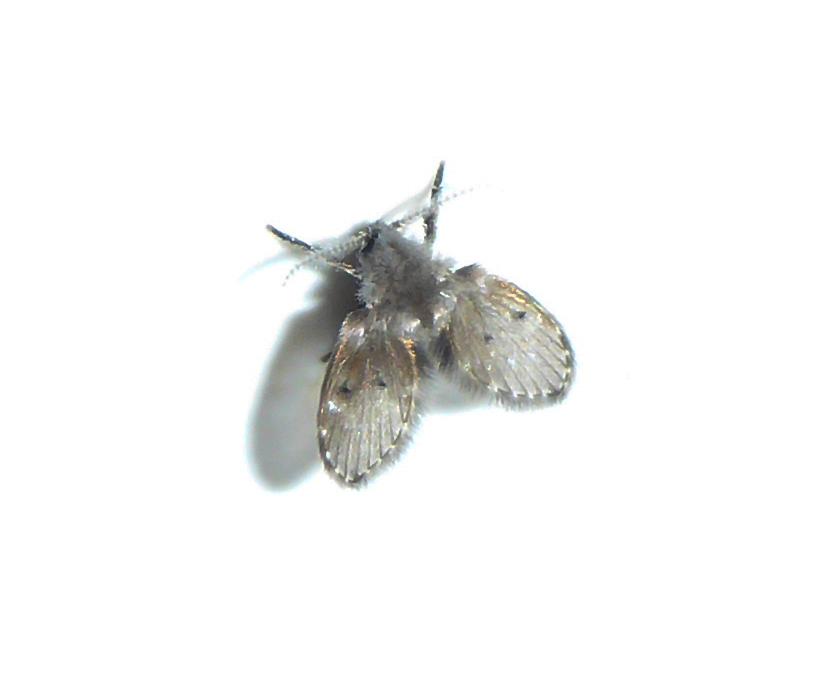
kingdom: Animalia
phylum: Arthropoda
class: Insecta
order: Diptera
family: Psychodidae
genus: Psychoda
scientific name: Psychoda grisescens
